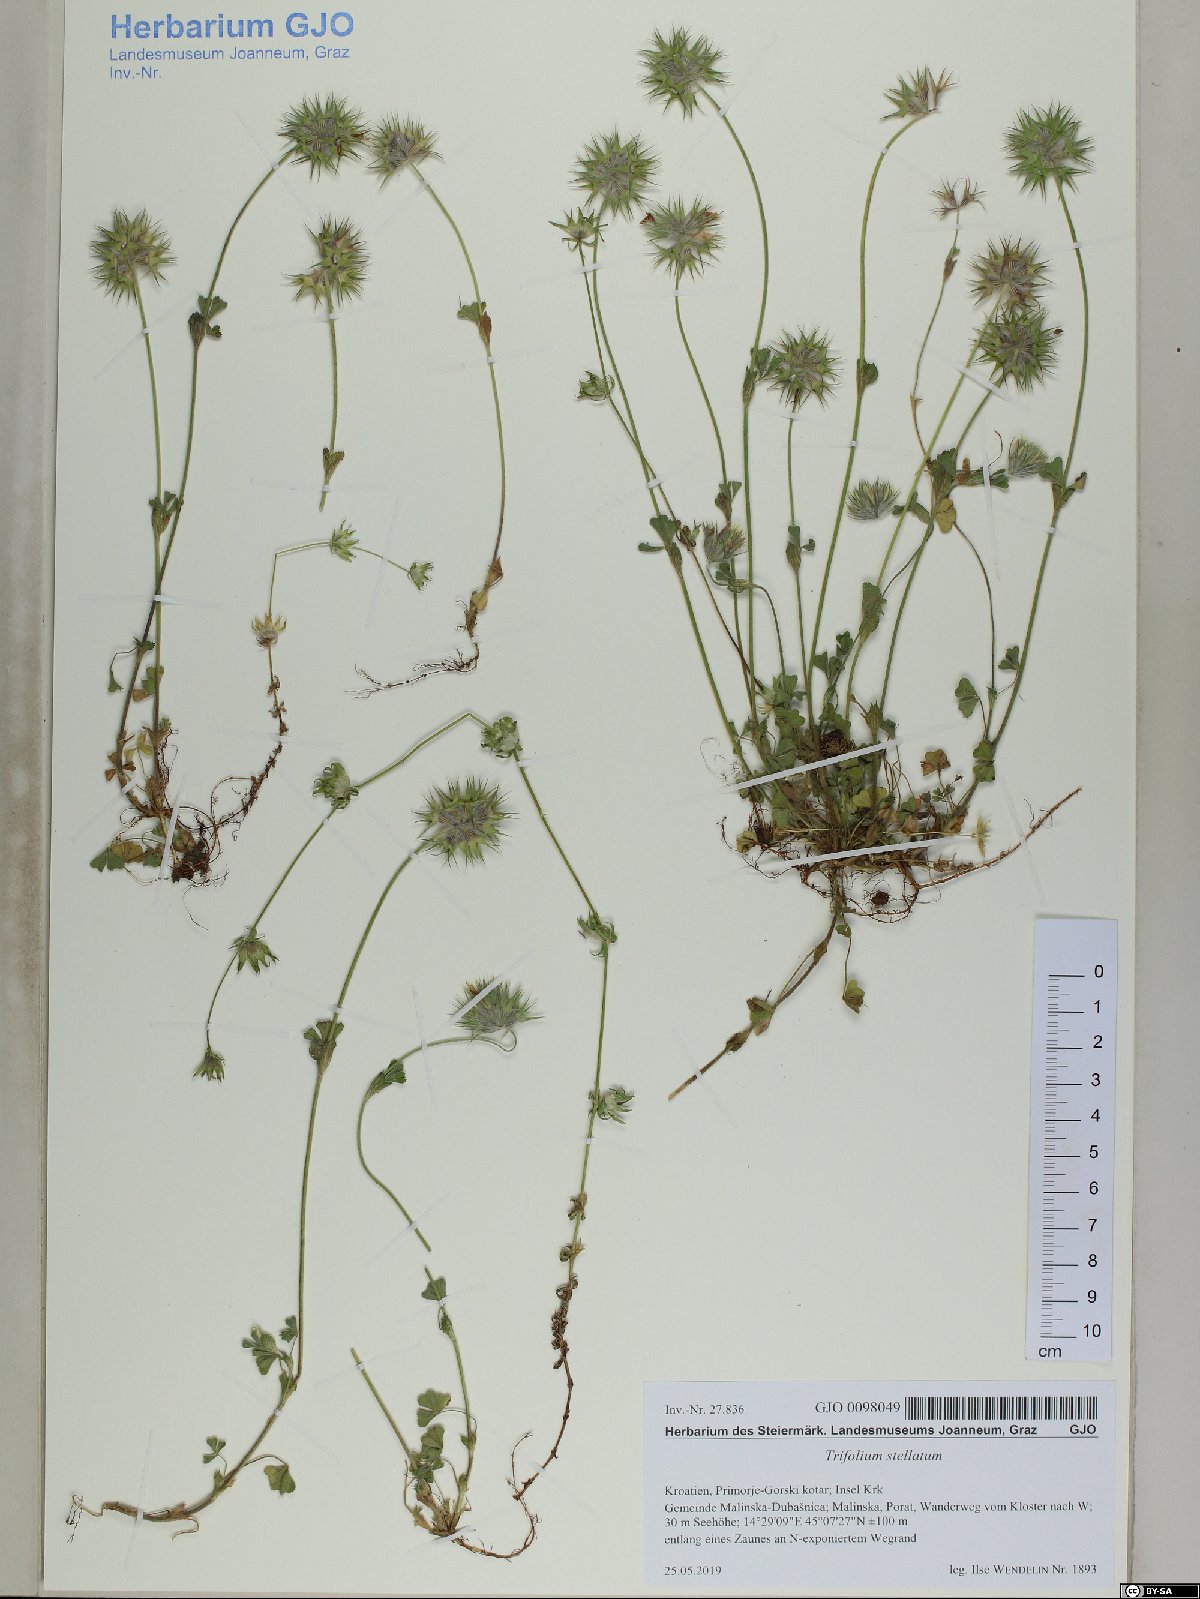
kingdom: Plantae
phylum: Tracheophyta
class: Magnoliopsida
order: Fabales
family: Fabaceae
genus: Trifolium
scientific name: Trifolium stellatum
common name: Starry clover
